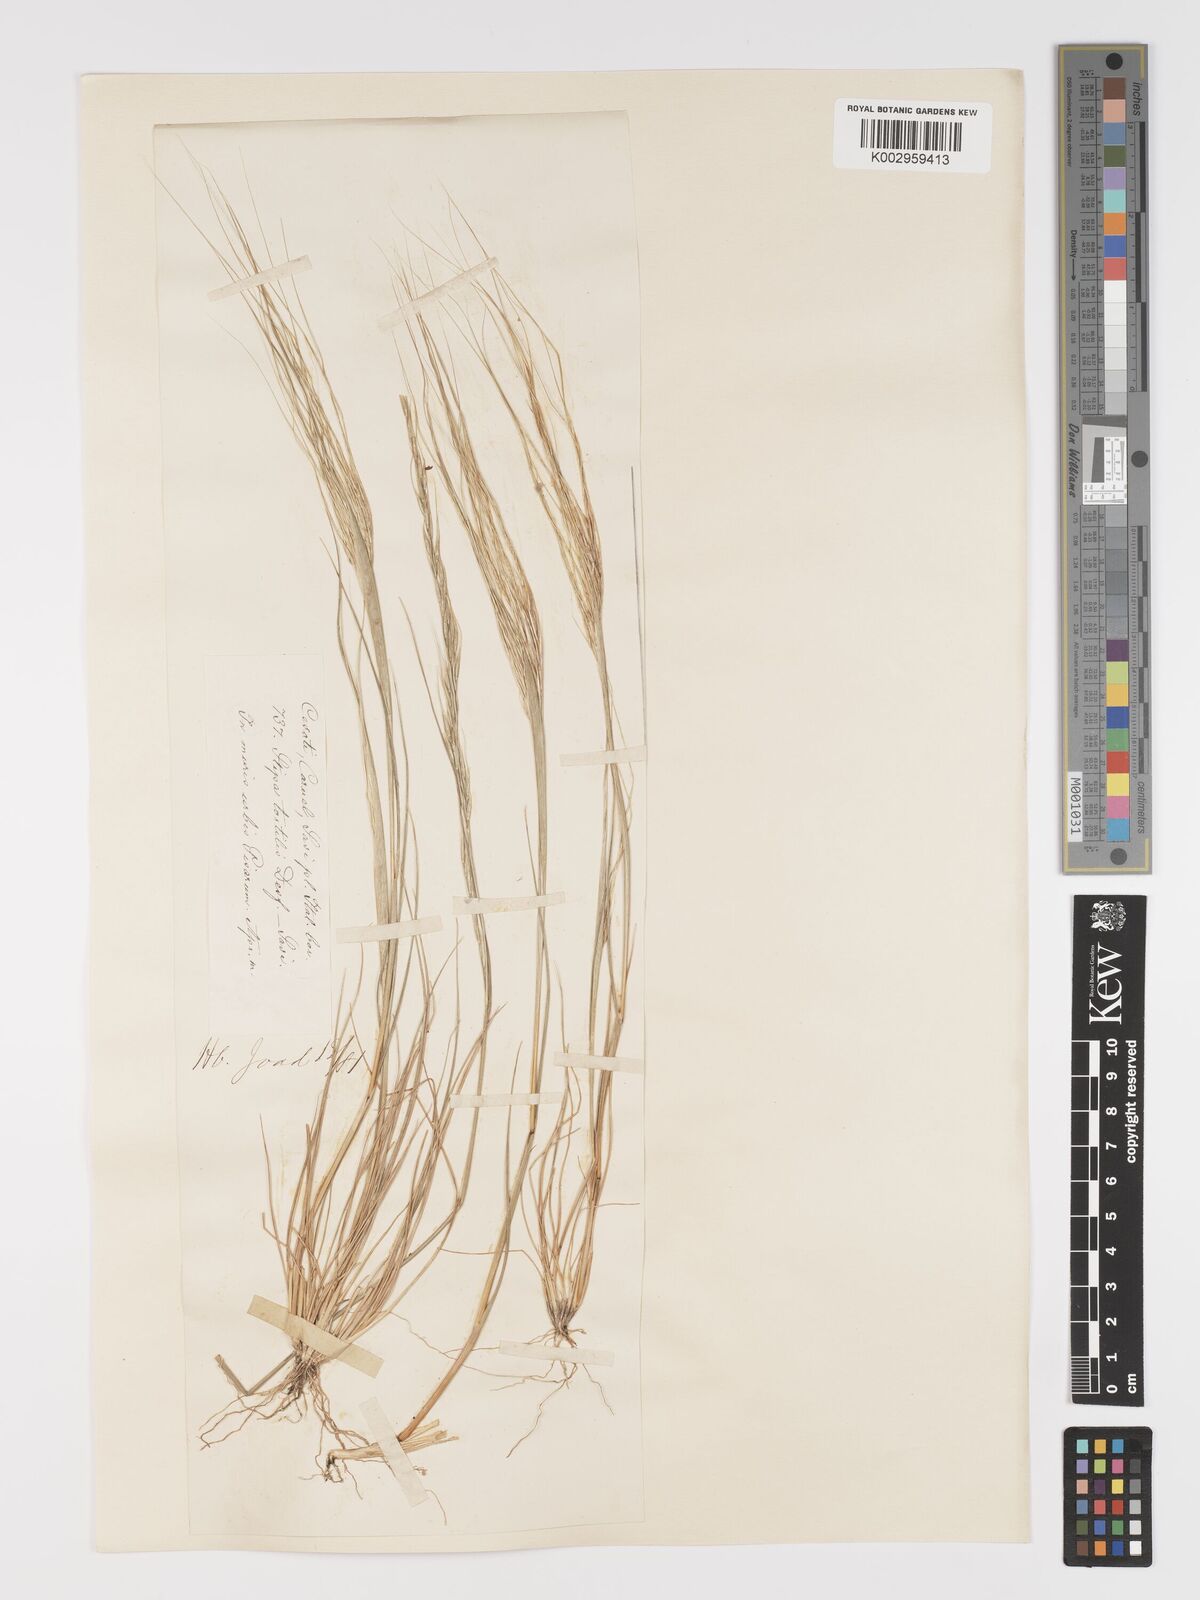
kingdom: Plantae
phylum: Tracheophyta
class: Liliopsida
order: Poales
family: Poaceae
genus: Stipa
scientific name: Stipa
